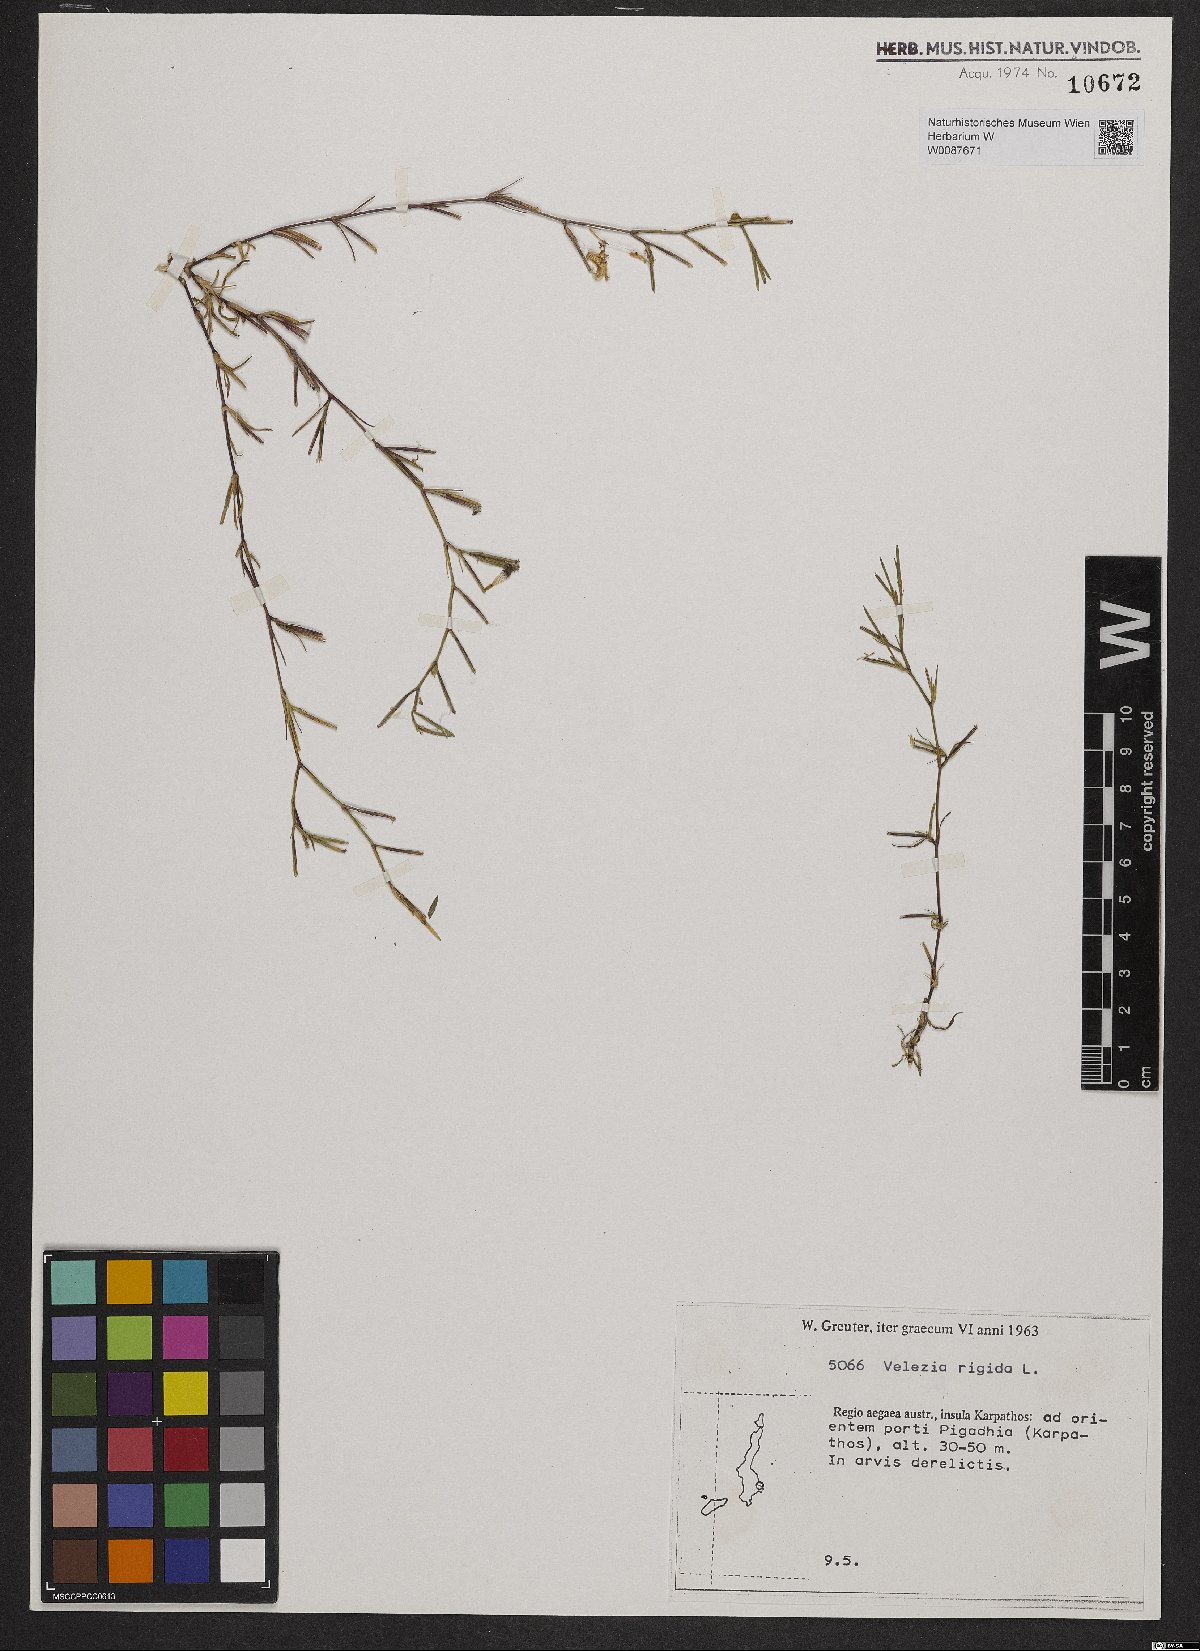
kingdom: Plantae
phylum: Tracheophyta
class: Magnoliopsida
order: Caryophyllales
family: Caryophyllaceae
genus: Dianthus
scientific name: Dianthus nudiflorus
